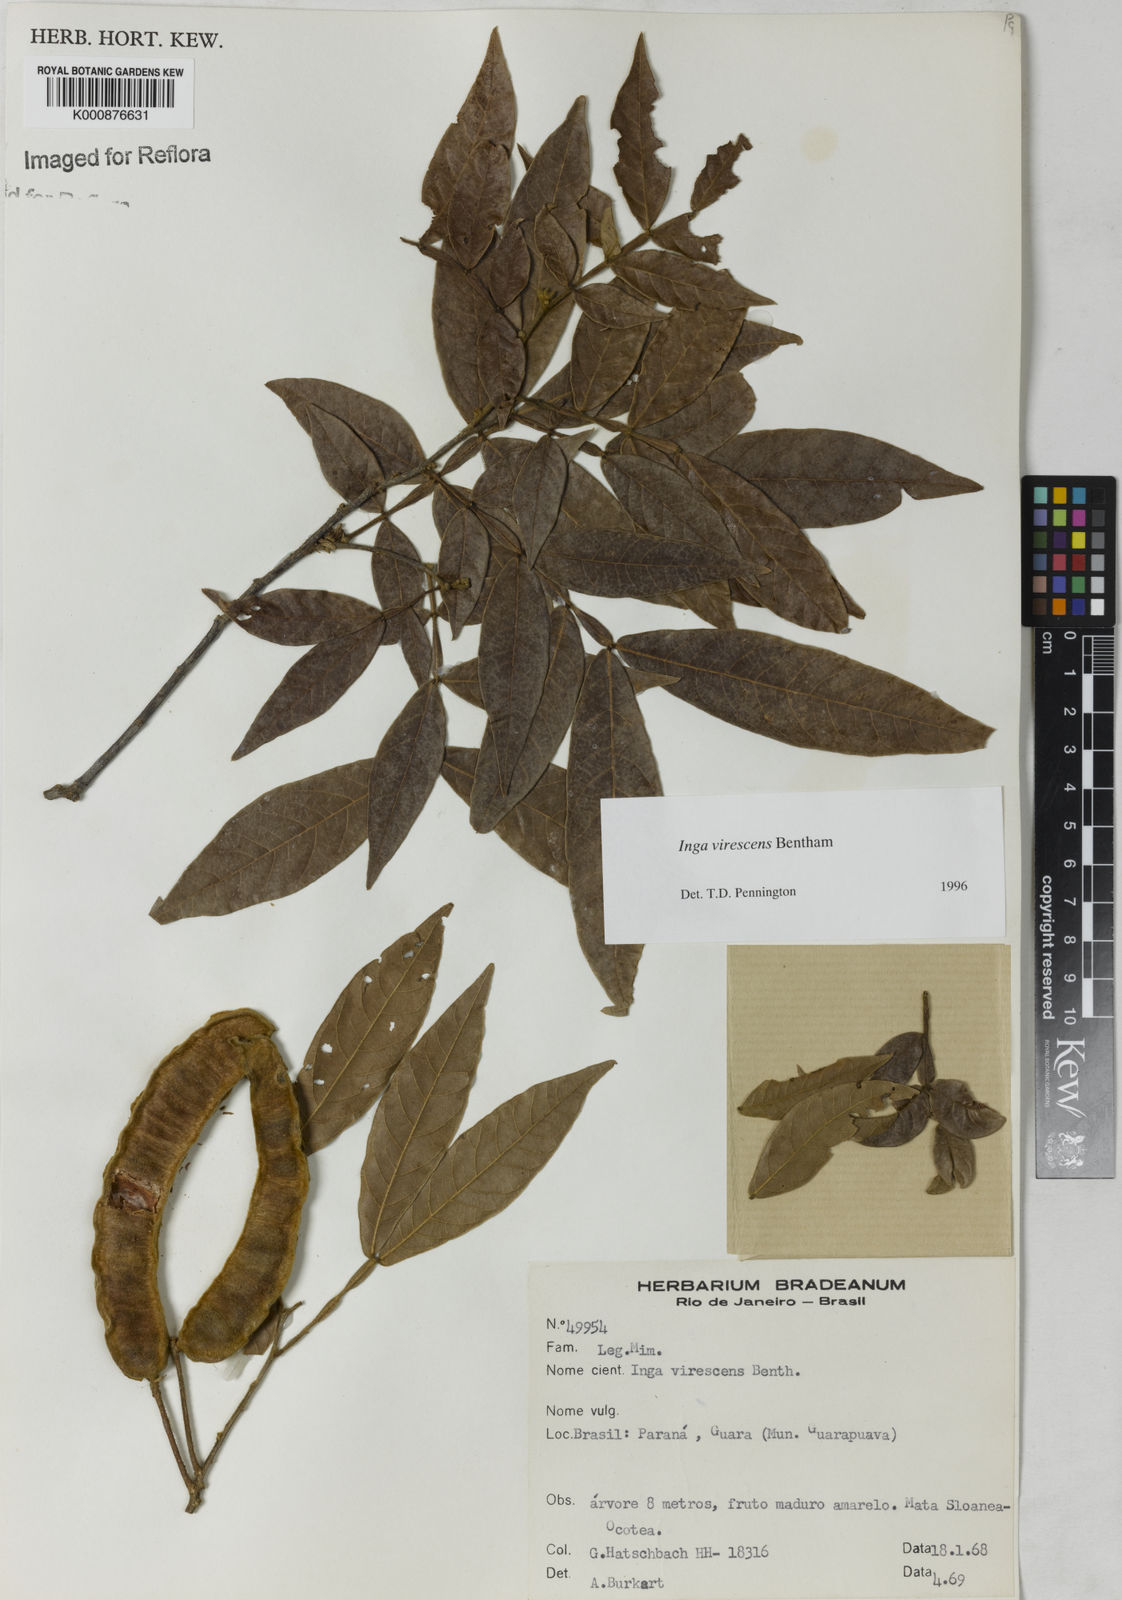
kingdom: Plantae
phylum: Tracheophyta
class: Magnoliopsida
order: Fabales
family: Fabaceae
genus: Inga
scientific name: Inga virescens
